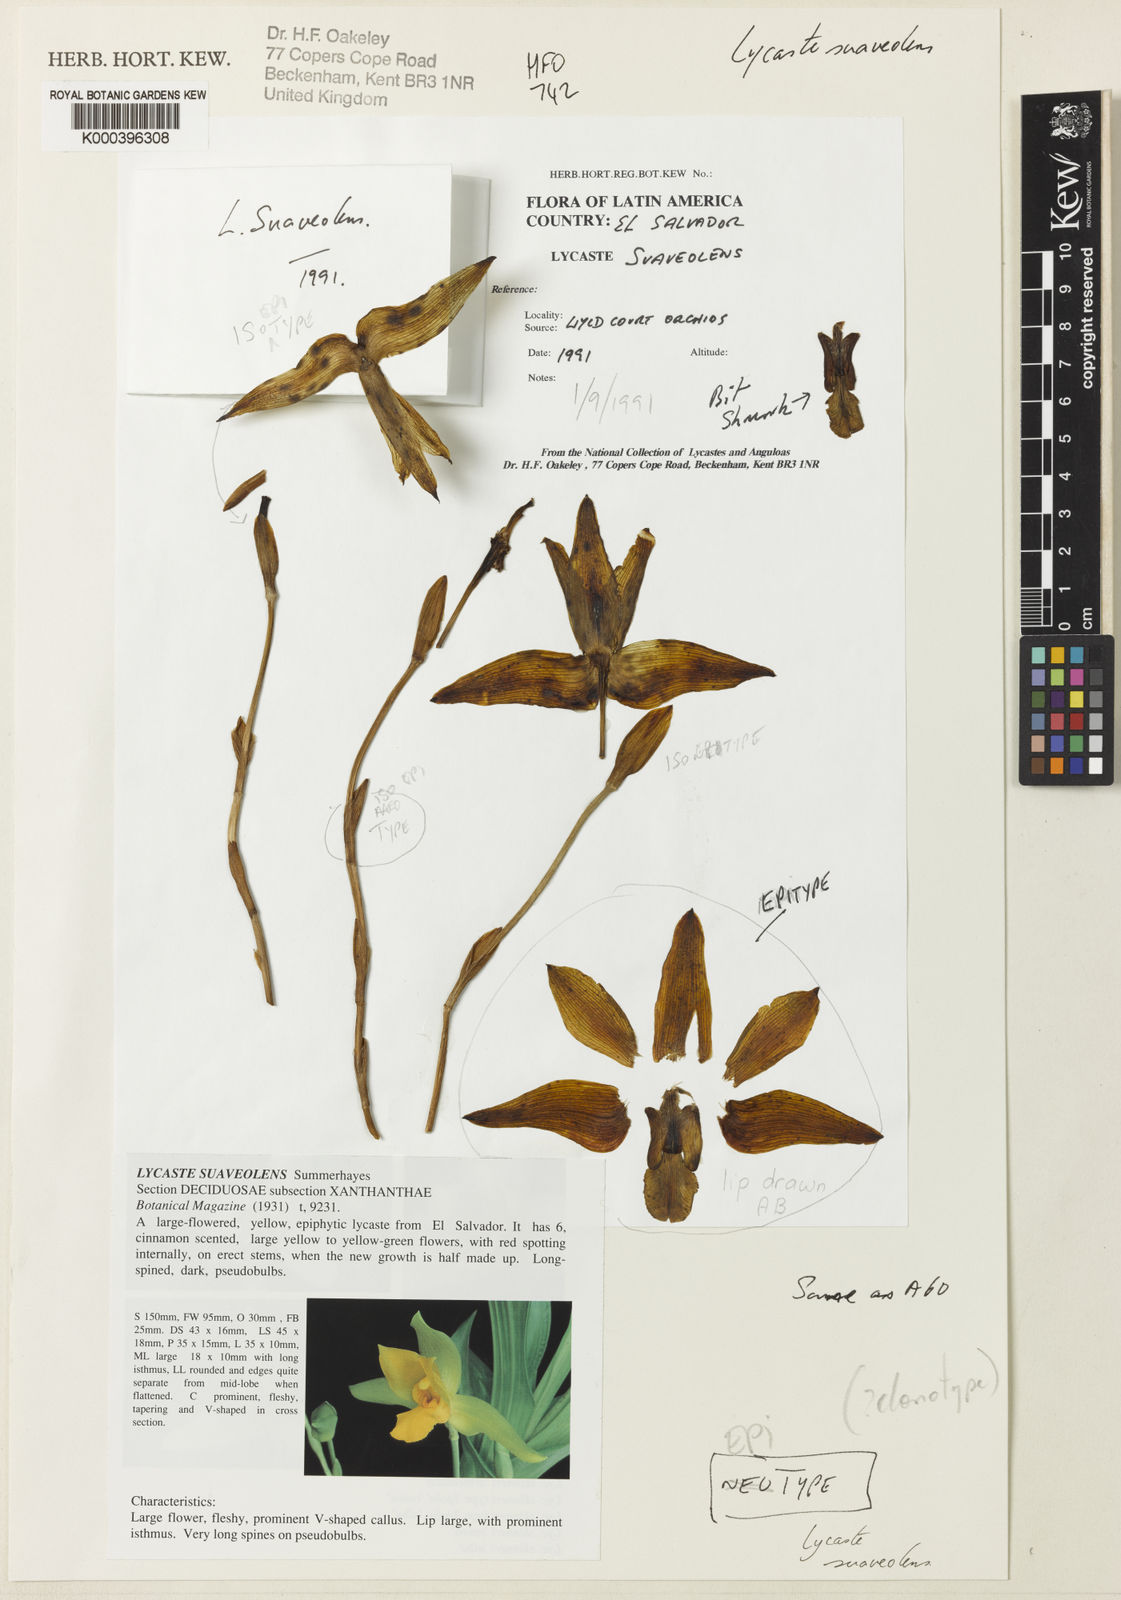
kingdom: Plantae
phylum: Tracheophyta
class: Liliopsida
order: Asparagales
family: Orchidaceae
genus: Lycaste
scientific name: Lycaste
